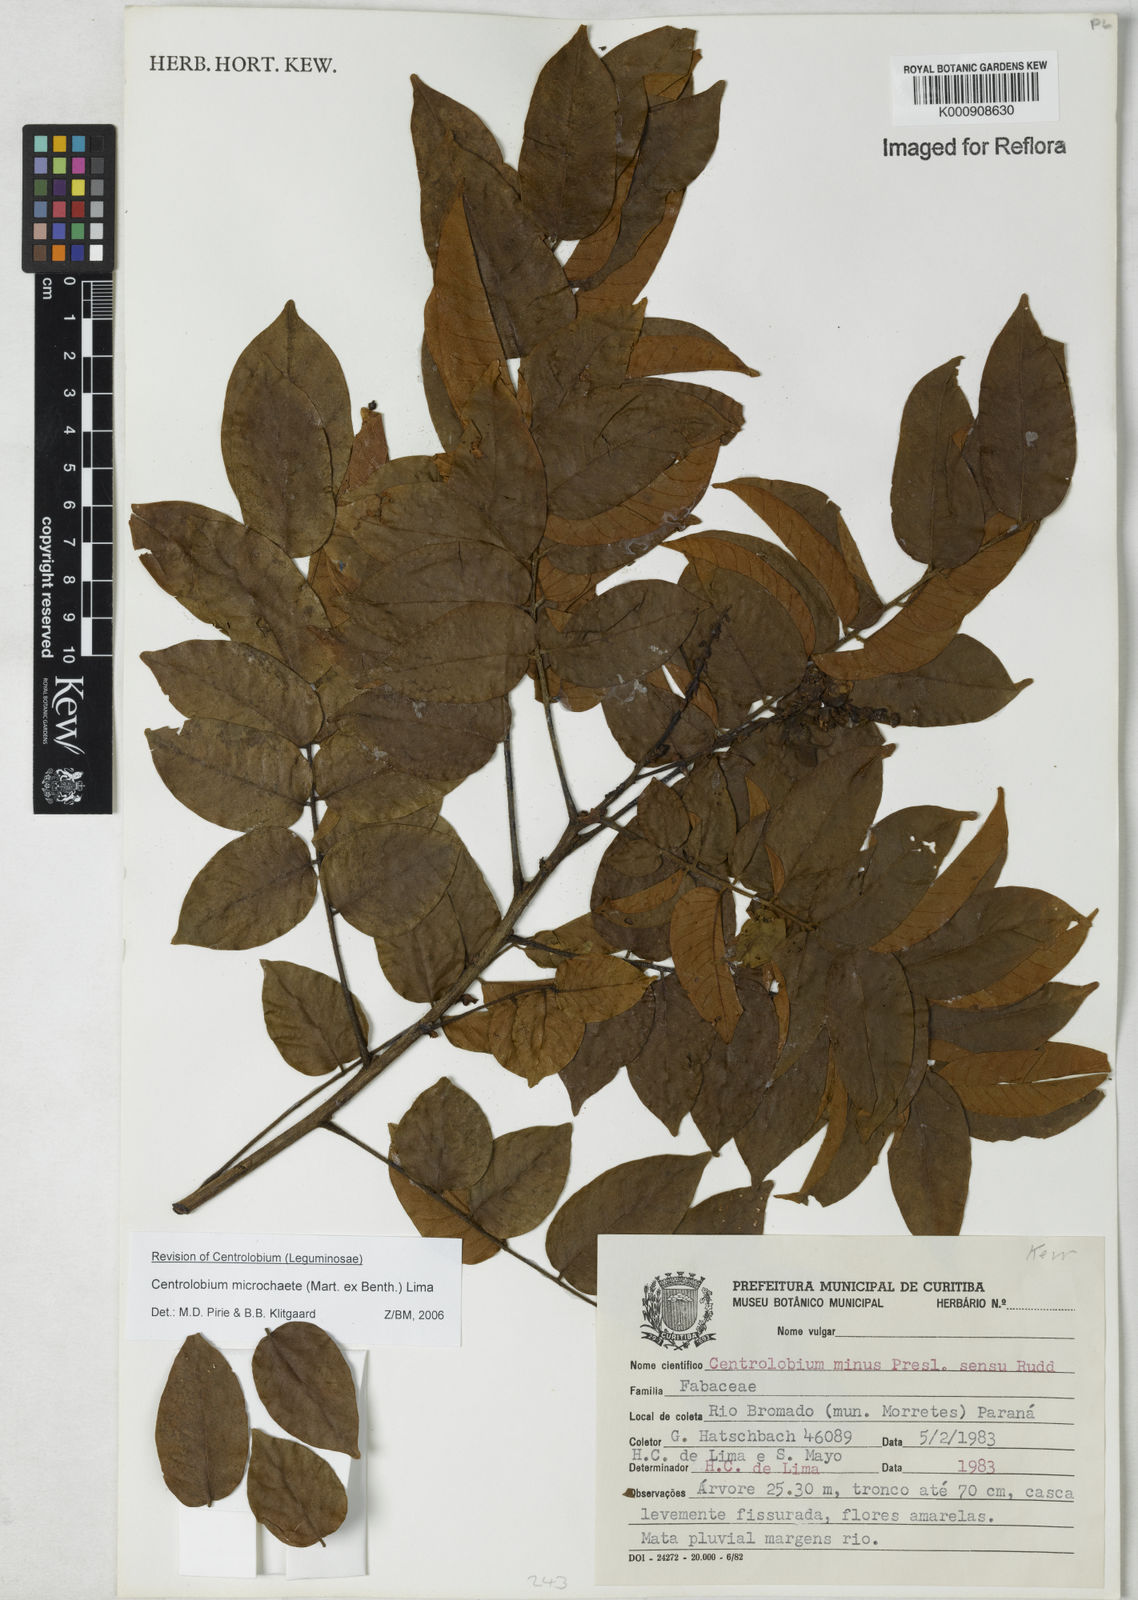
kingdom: Plantae
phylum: Tracheophyta
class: Magnoliopsida
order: Fabales
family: Fabaceae
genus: Centrolobium
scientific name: Centrolobium microchaete
